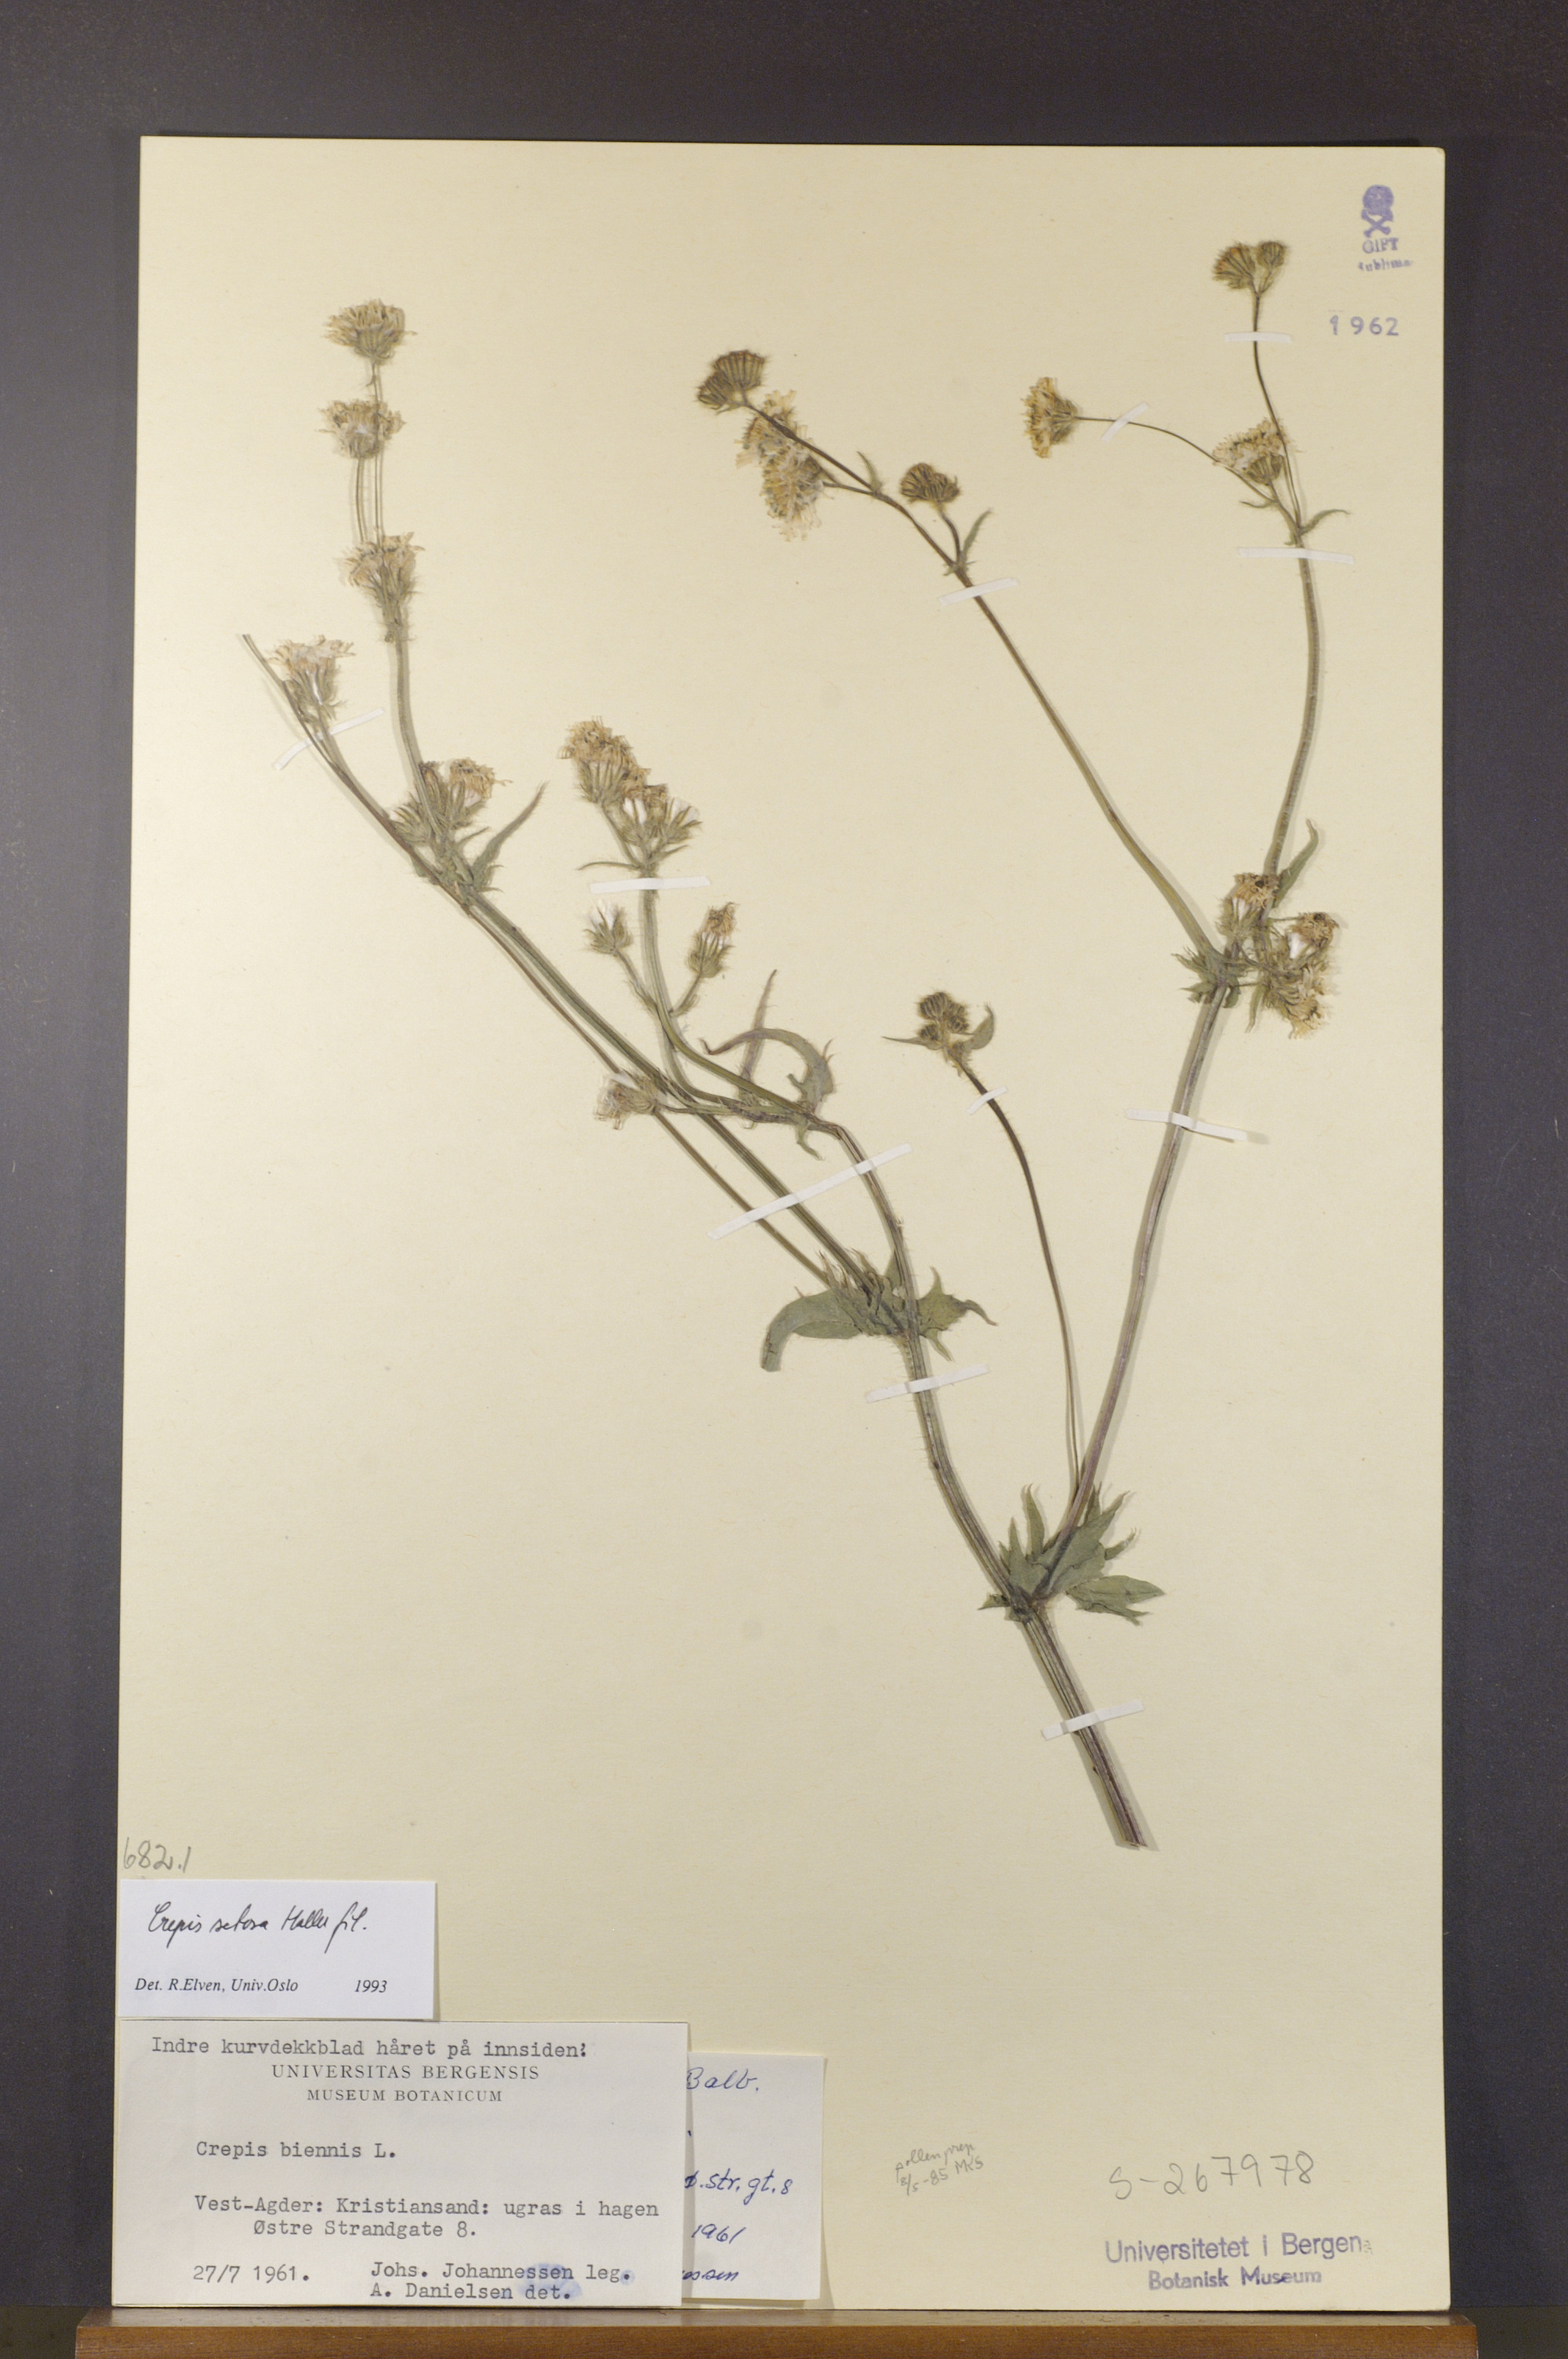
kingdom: Plantae
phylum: Tracheophyta
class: Magnoliopsida
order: Asterales
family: Asteraceae
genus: Crepis
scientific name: Crepis setosa
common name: Bristly hawk's-beard
